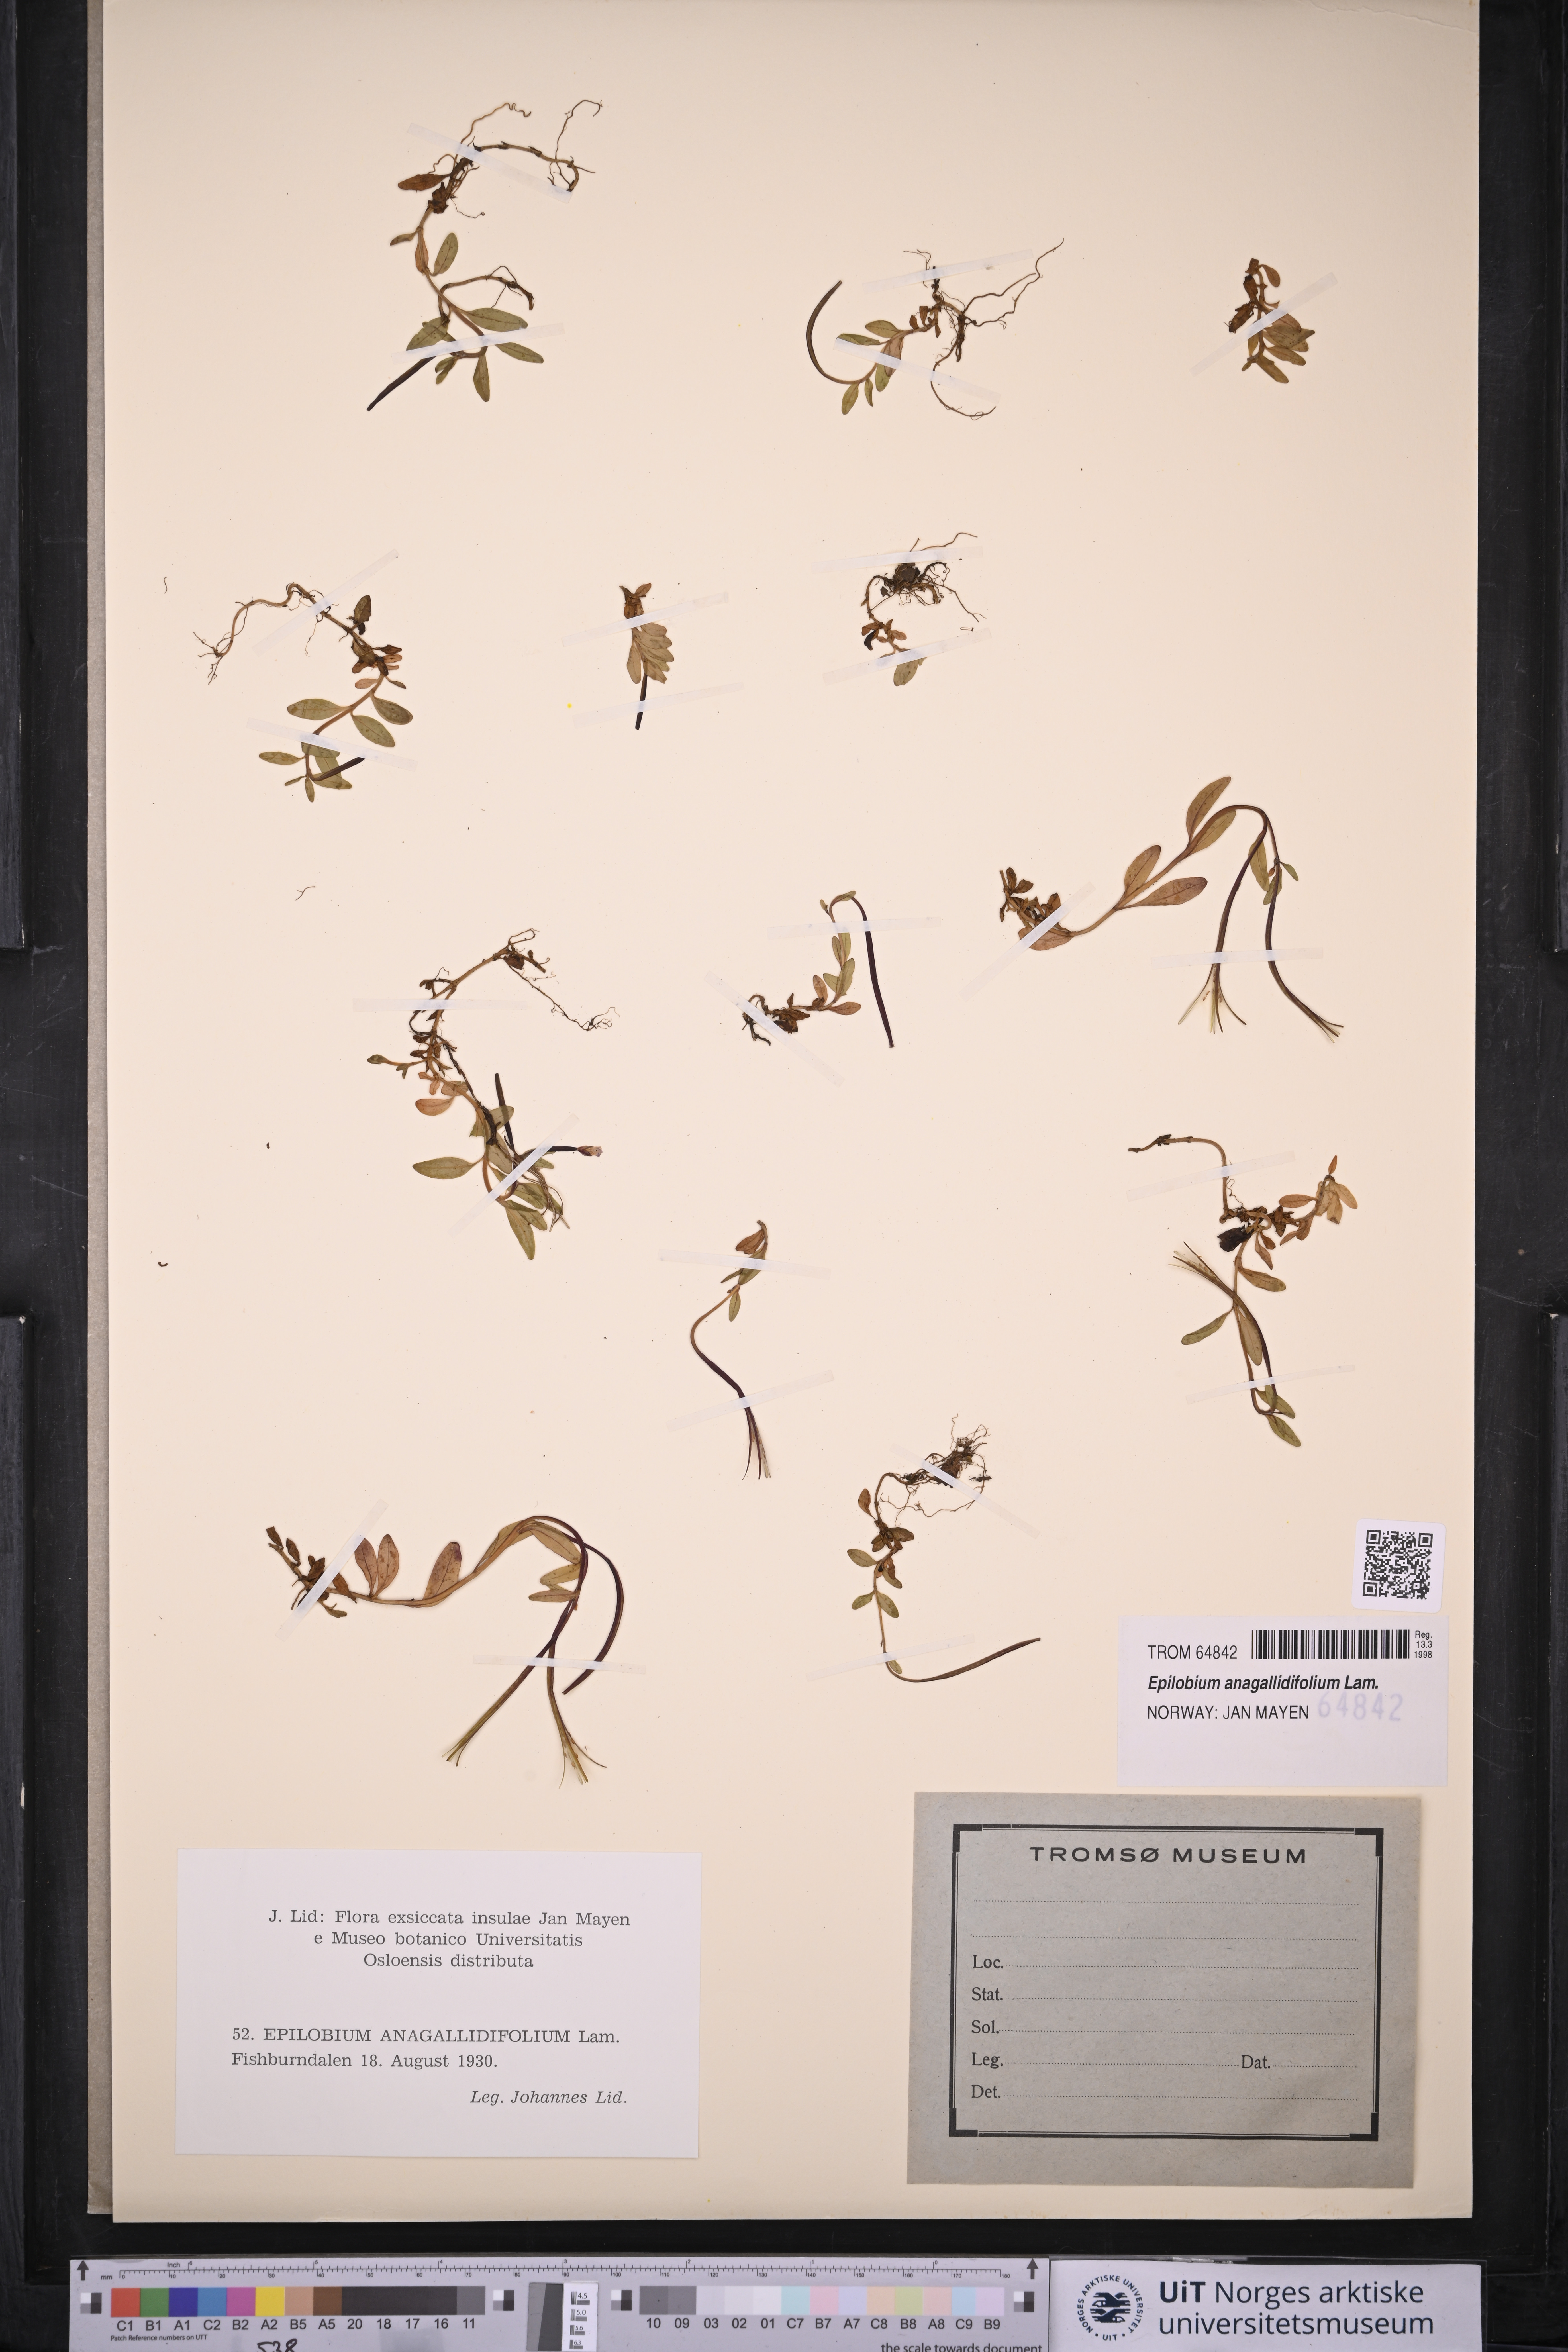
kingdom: Plantae
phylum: Tracheophyta
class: Magnoliopsida
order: Myrtales
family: Onagraceae
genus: Epilobium
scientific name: Epilobium anagallidifolium
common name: Alpine willowherb
